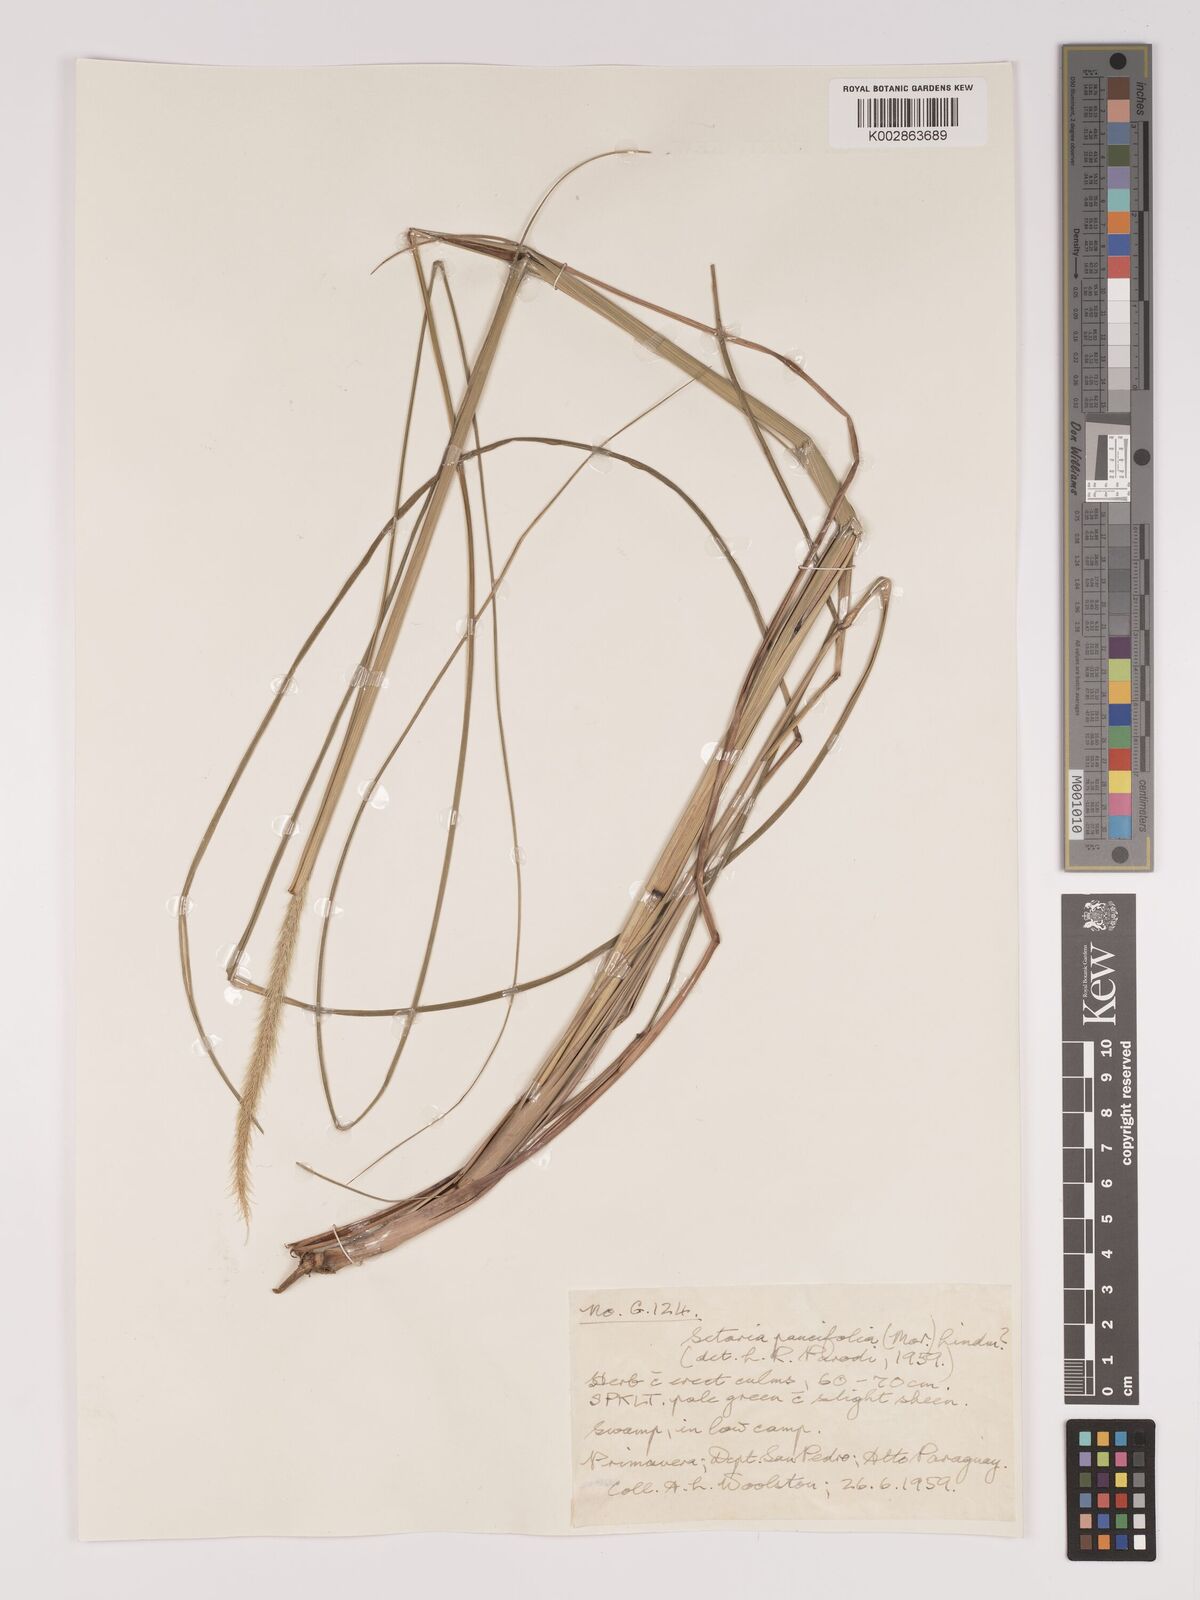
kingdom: Plantae
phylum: Tracheophyta
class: Liliopsida
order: Poales
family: Poaceae
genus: Setaria
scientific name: Setaria paucifolia
